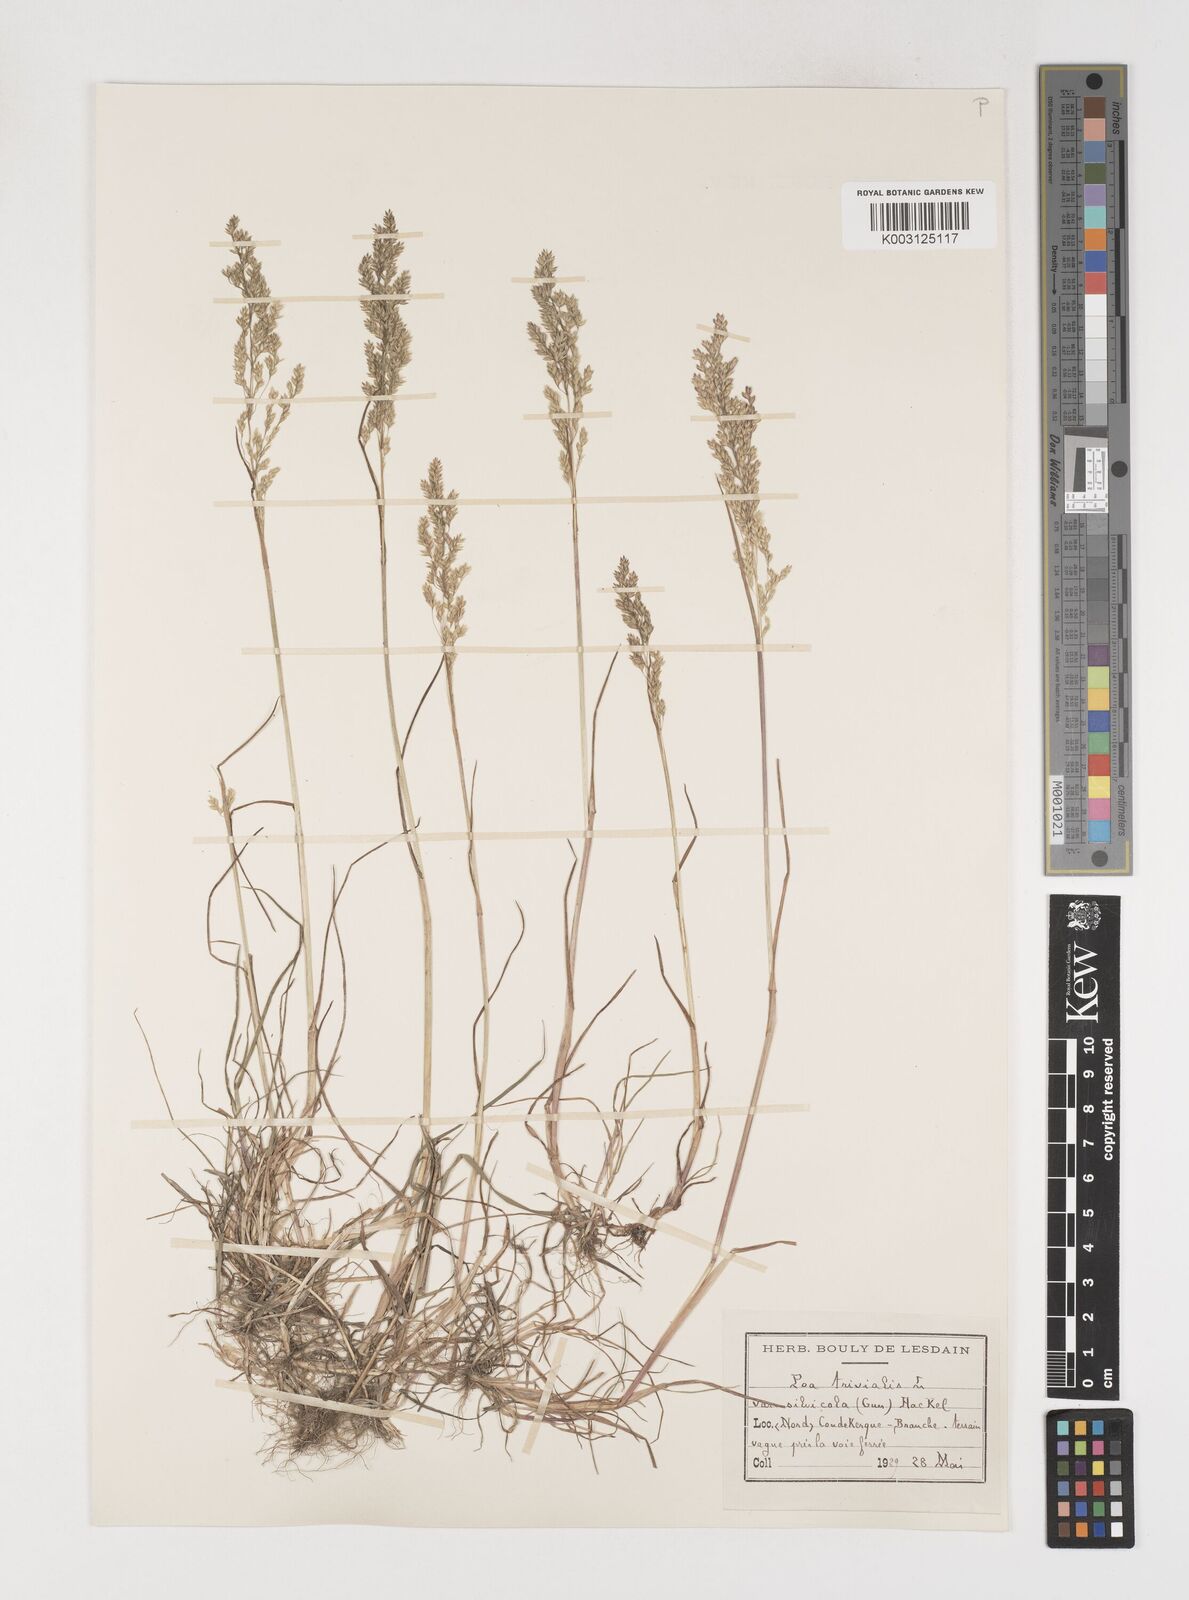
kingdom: Plantae
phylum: Tracheophyta
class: Liliopsida
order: Poales
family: Poaceae
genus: Poa
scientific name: Poa trivialis
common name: Rough bluegrass
